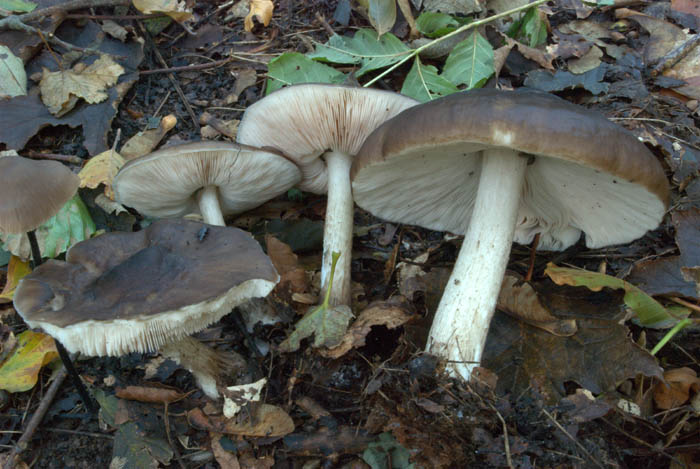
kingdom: Fungi
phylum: Basidiomycota
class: Agaricomycetes
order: Agaricales
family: Pluteaceae
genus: Pluteus
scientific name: Pluteus cervinus
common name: sodfarvet skærmhat
